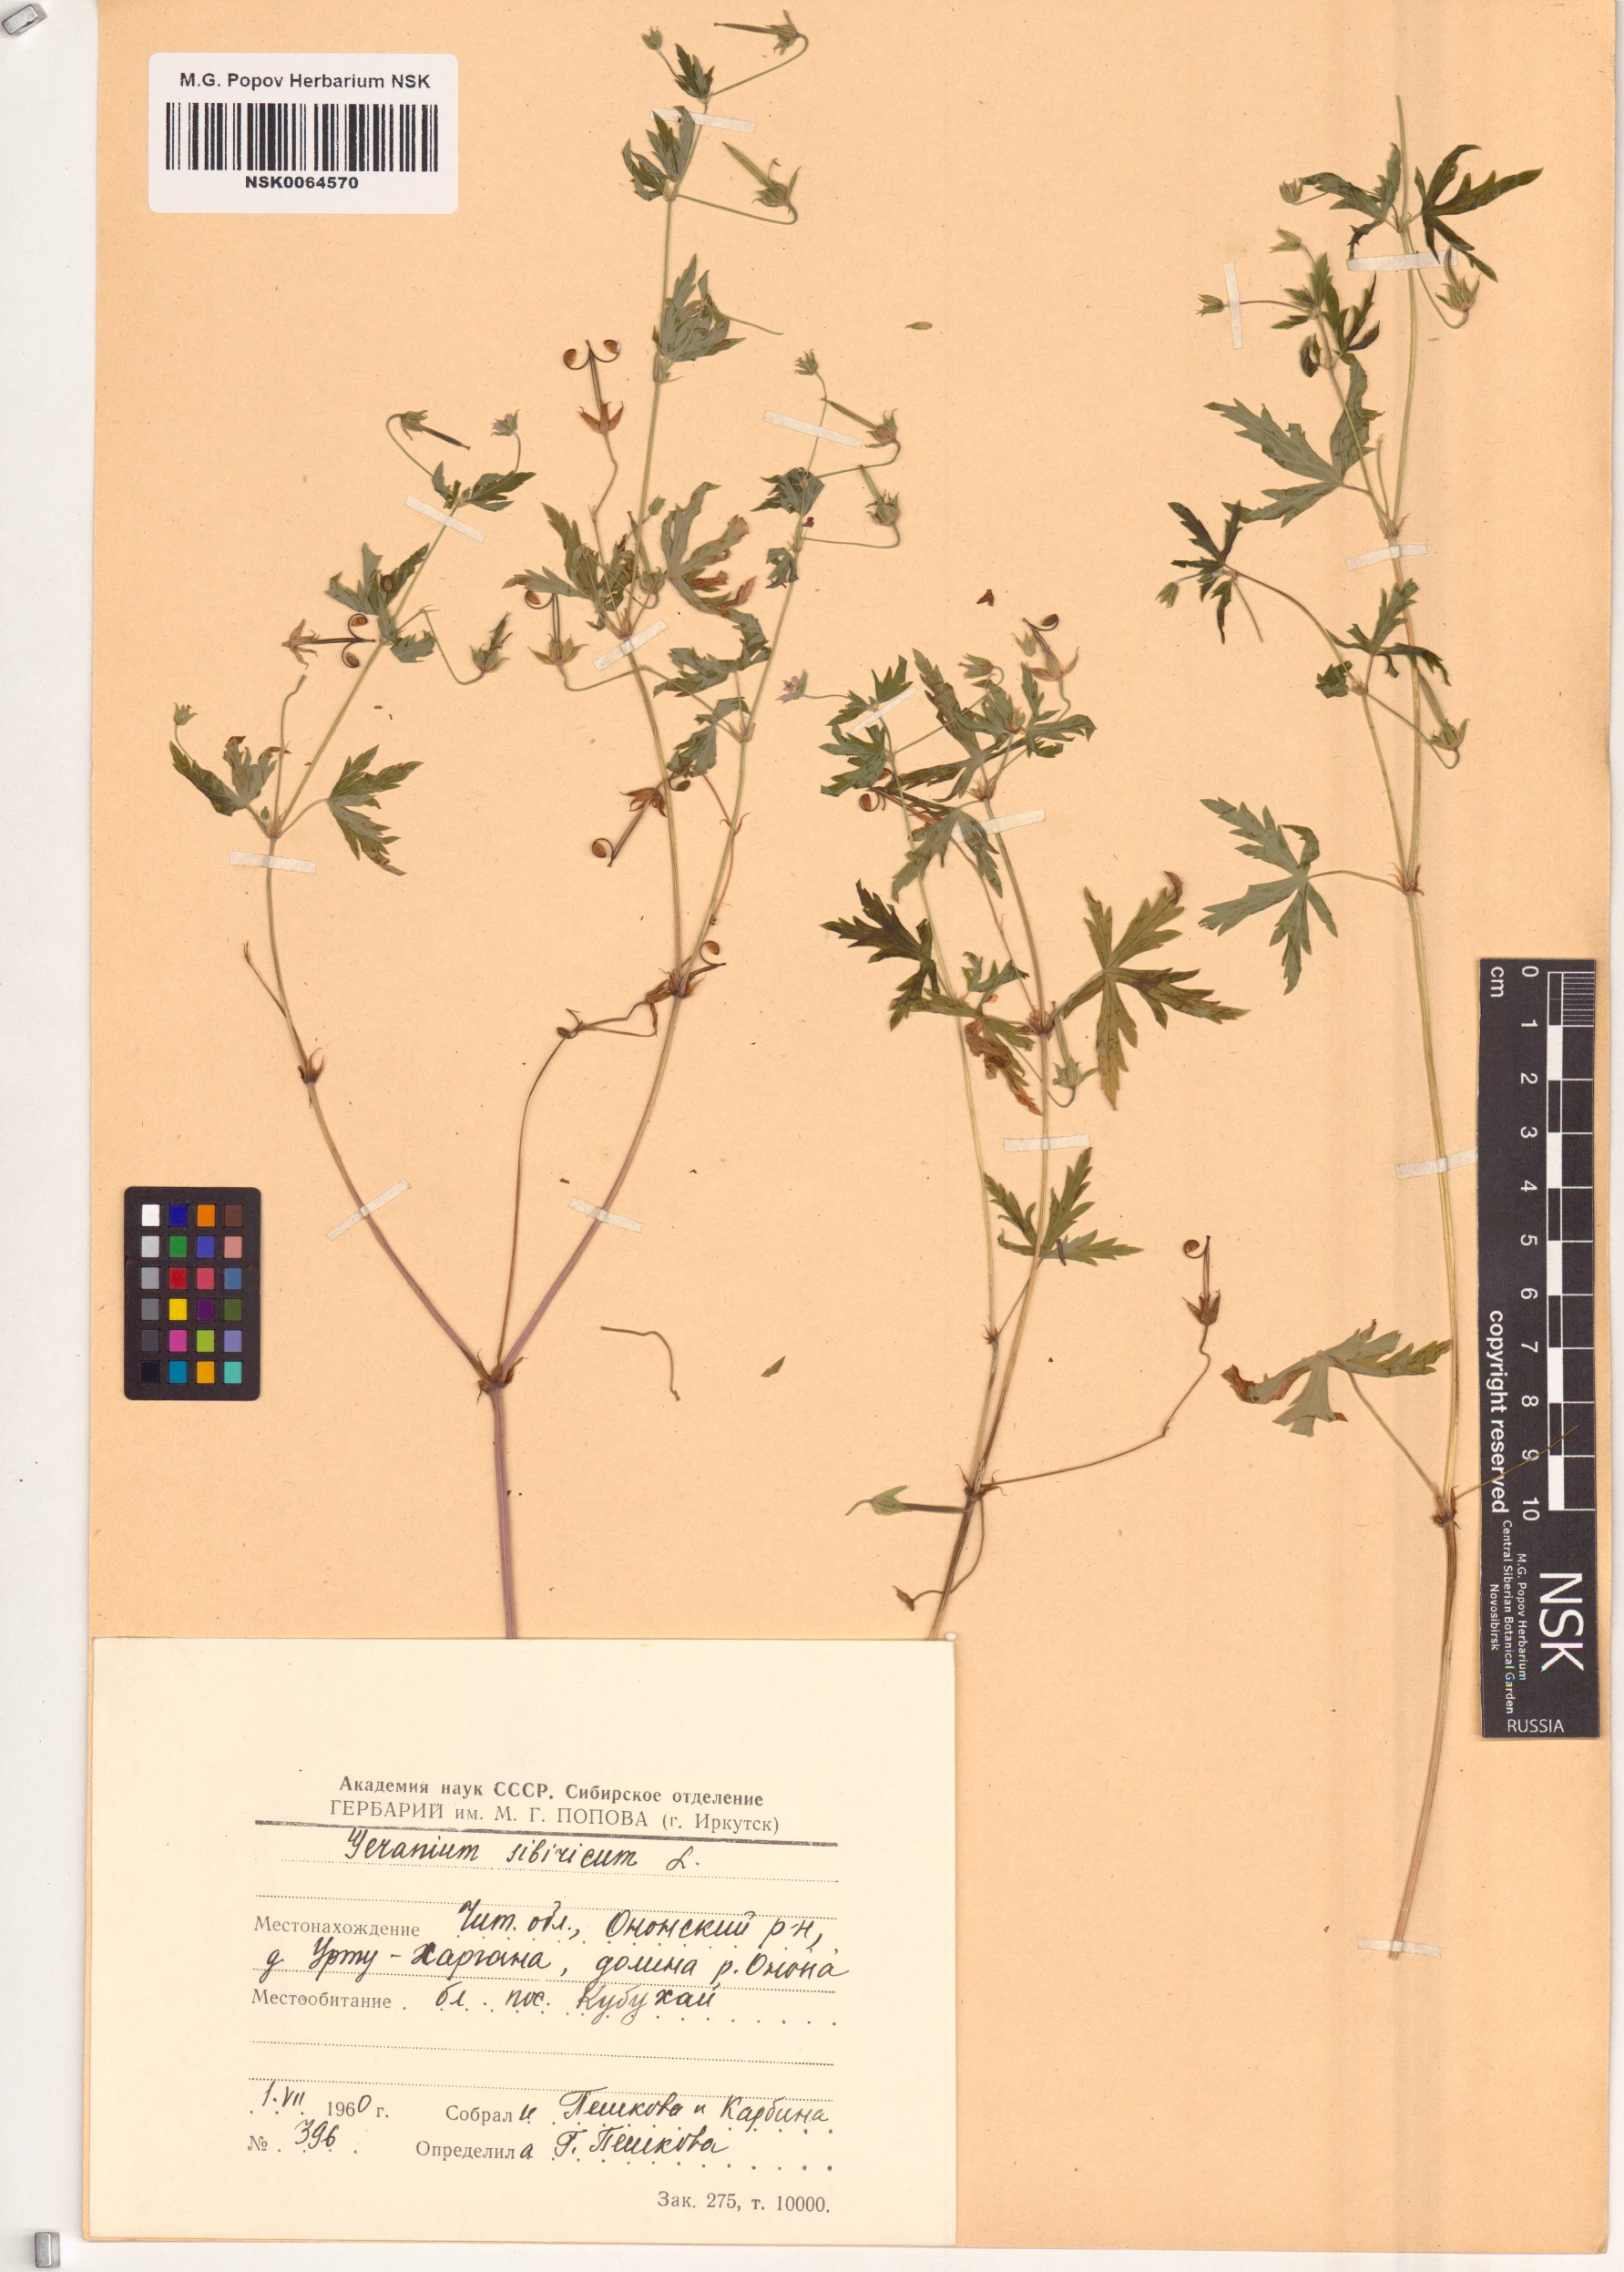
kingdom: Plantae
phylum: Tracheophyta
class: Magnoliopsida
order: Geraniales
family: Geraniaceae
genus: Geranium
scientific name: Geranium sibiricum
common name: Siberian crane's-bill
